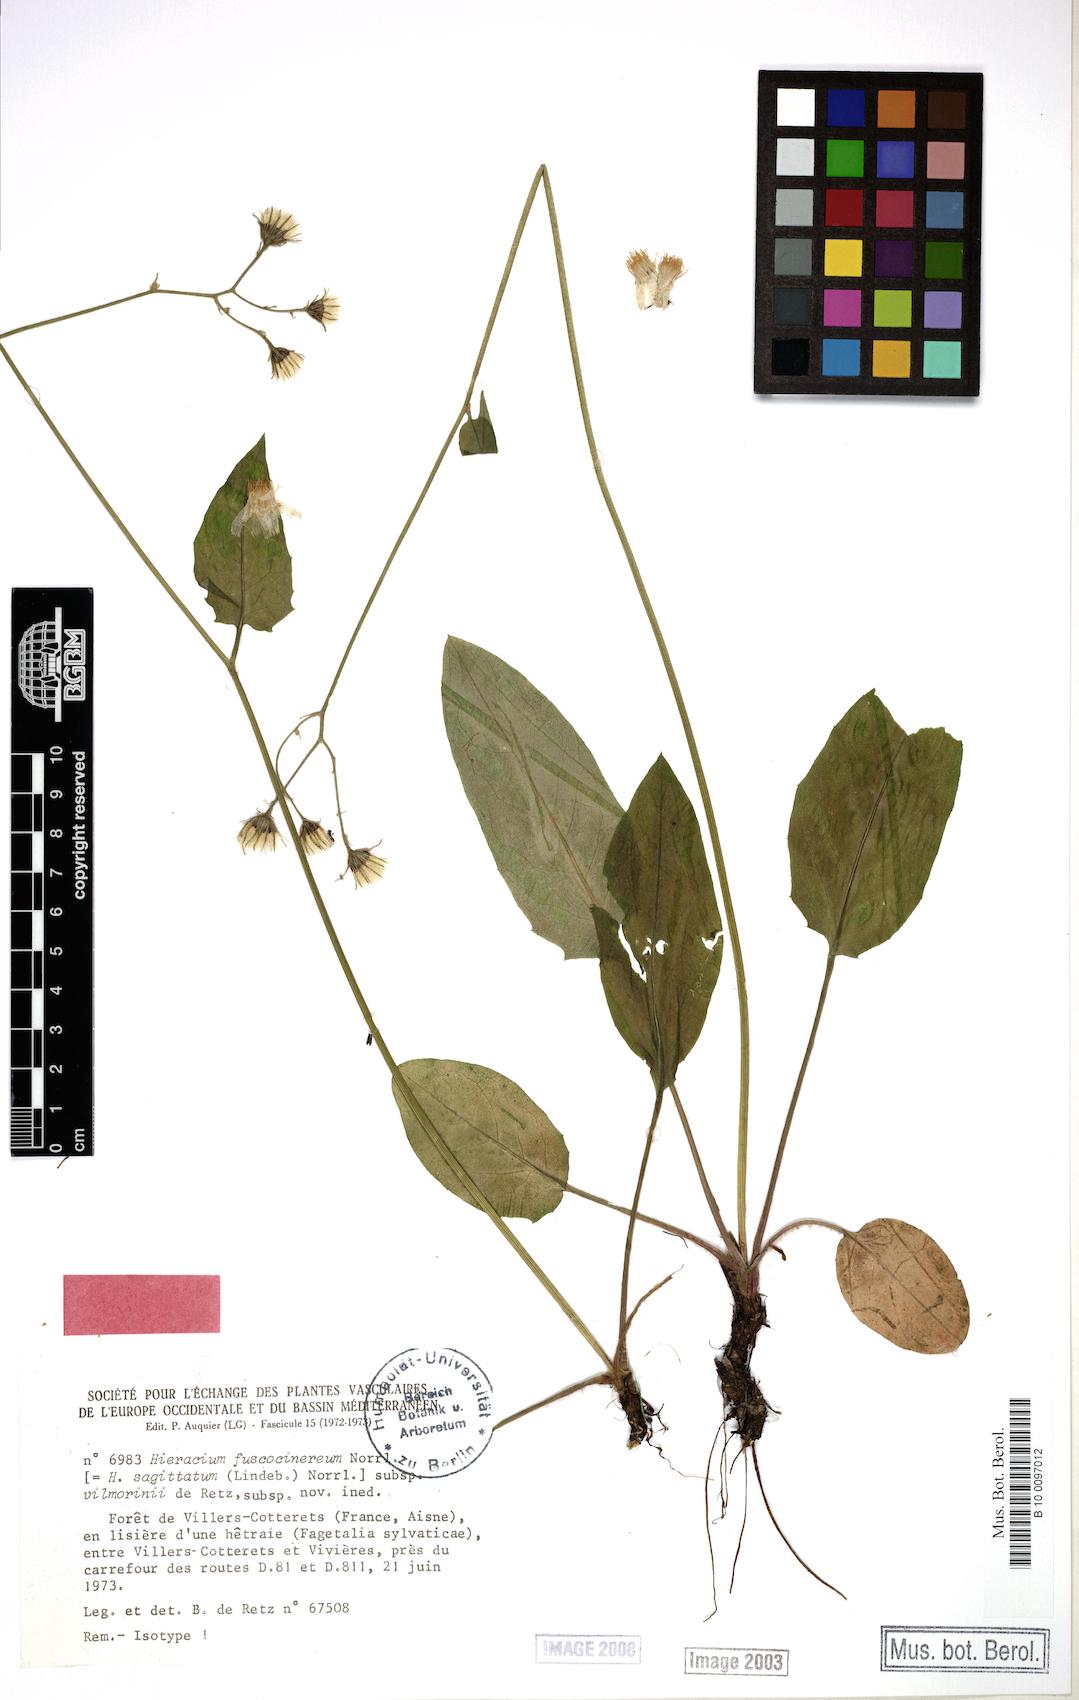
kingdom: Plantae
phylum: Tracheophyta
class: Magnoliopsida
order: Asterales
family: Asteraceae
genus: Hieracium
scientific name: Hieracium fuscocinereum
